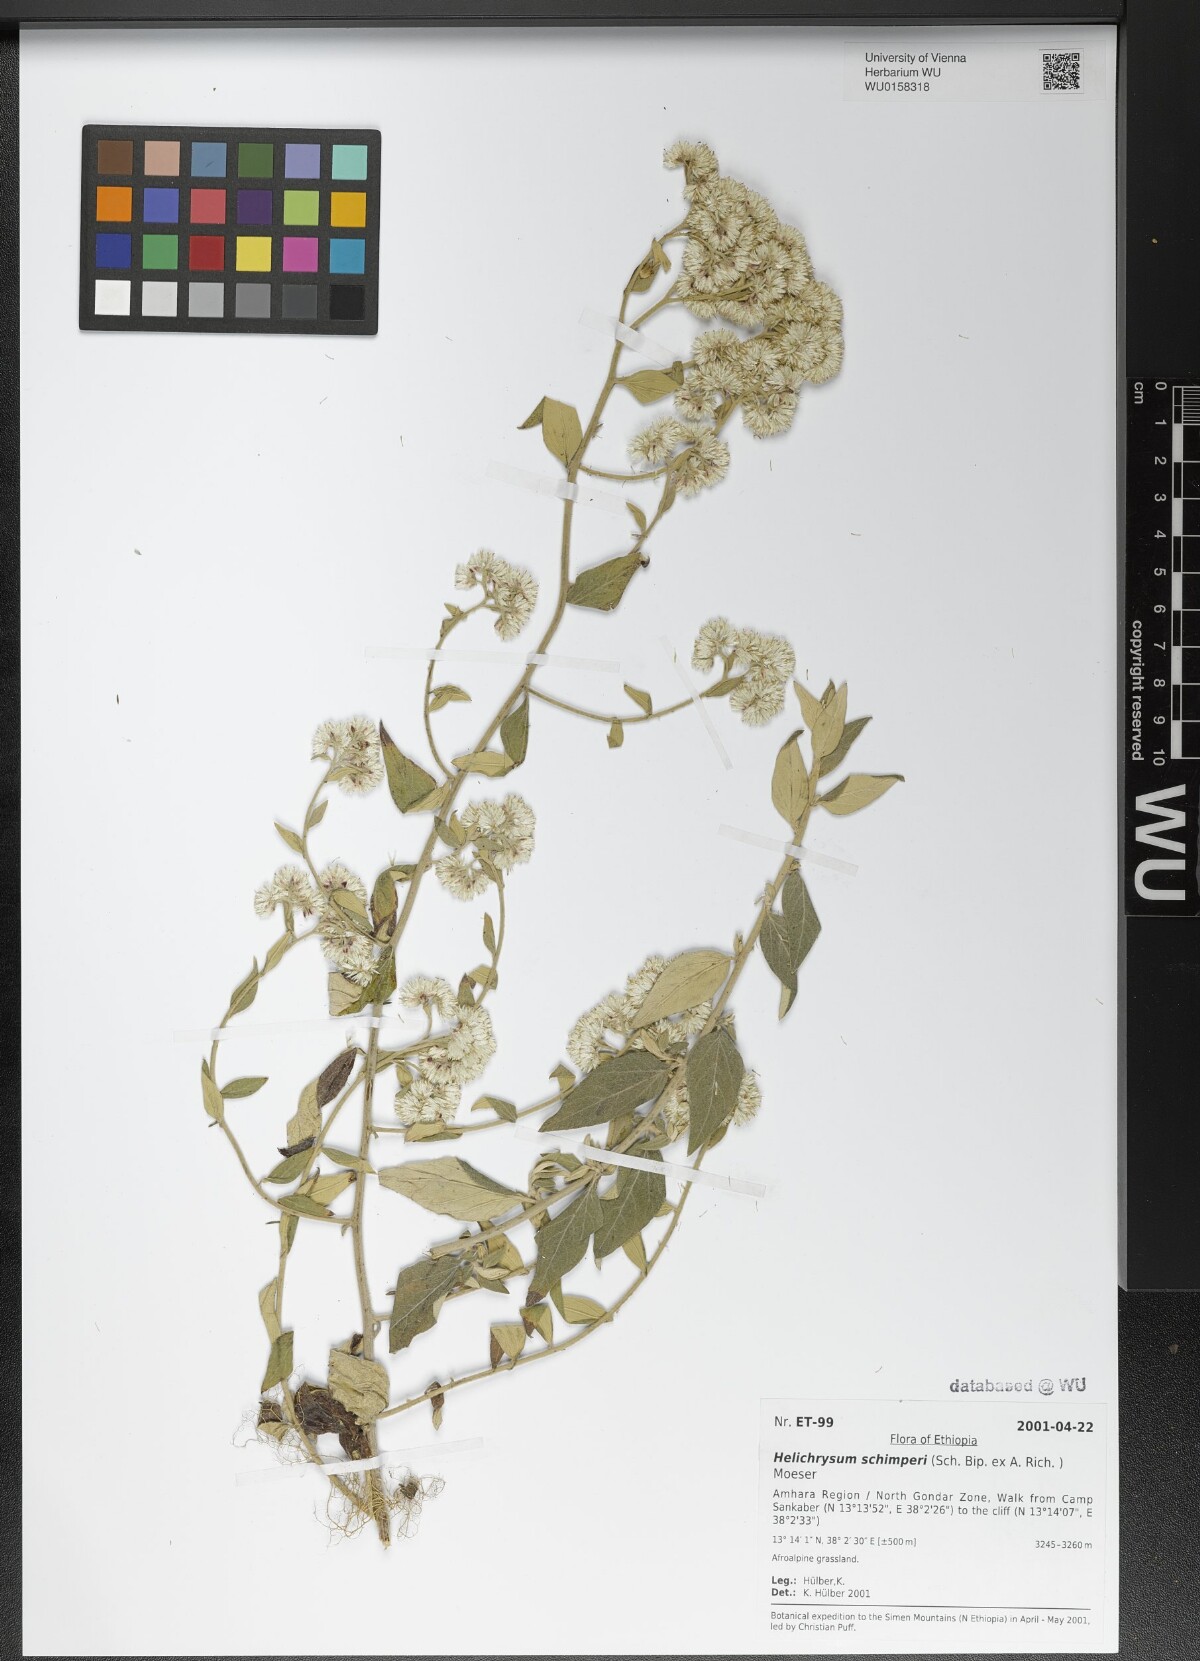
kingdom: Plantae
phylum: Tracheophyta
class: Magnoliopsida
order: Asterales
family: Asteraceae
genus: Helichrysum
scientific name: Helichrysum schimperi
